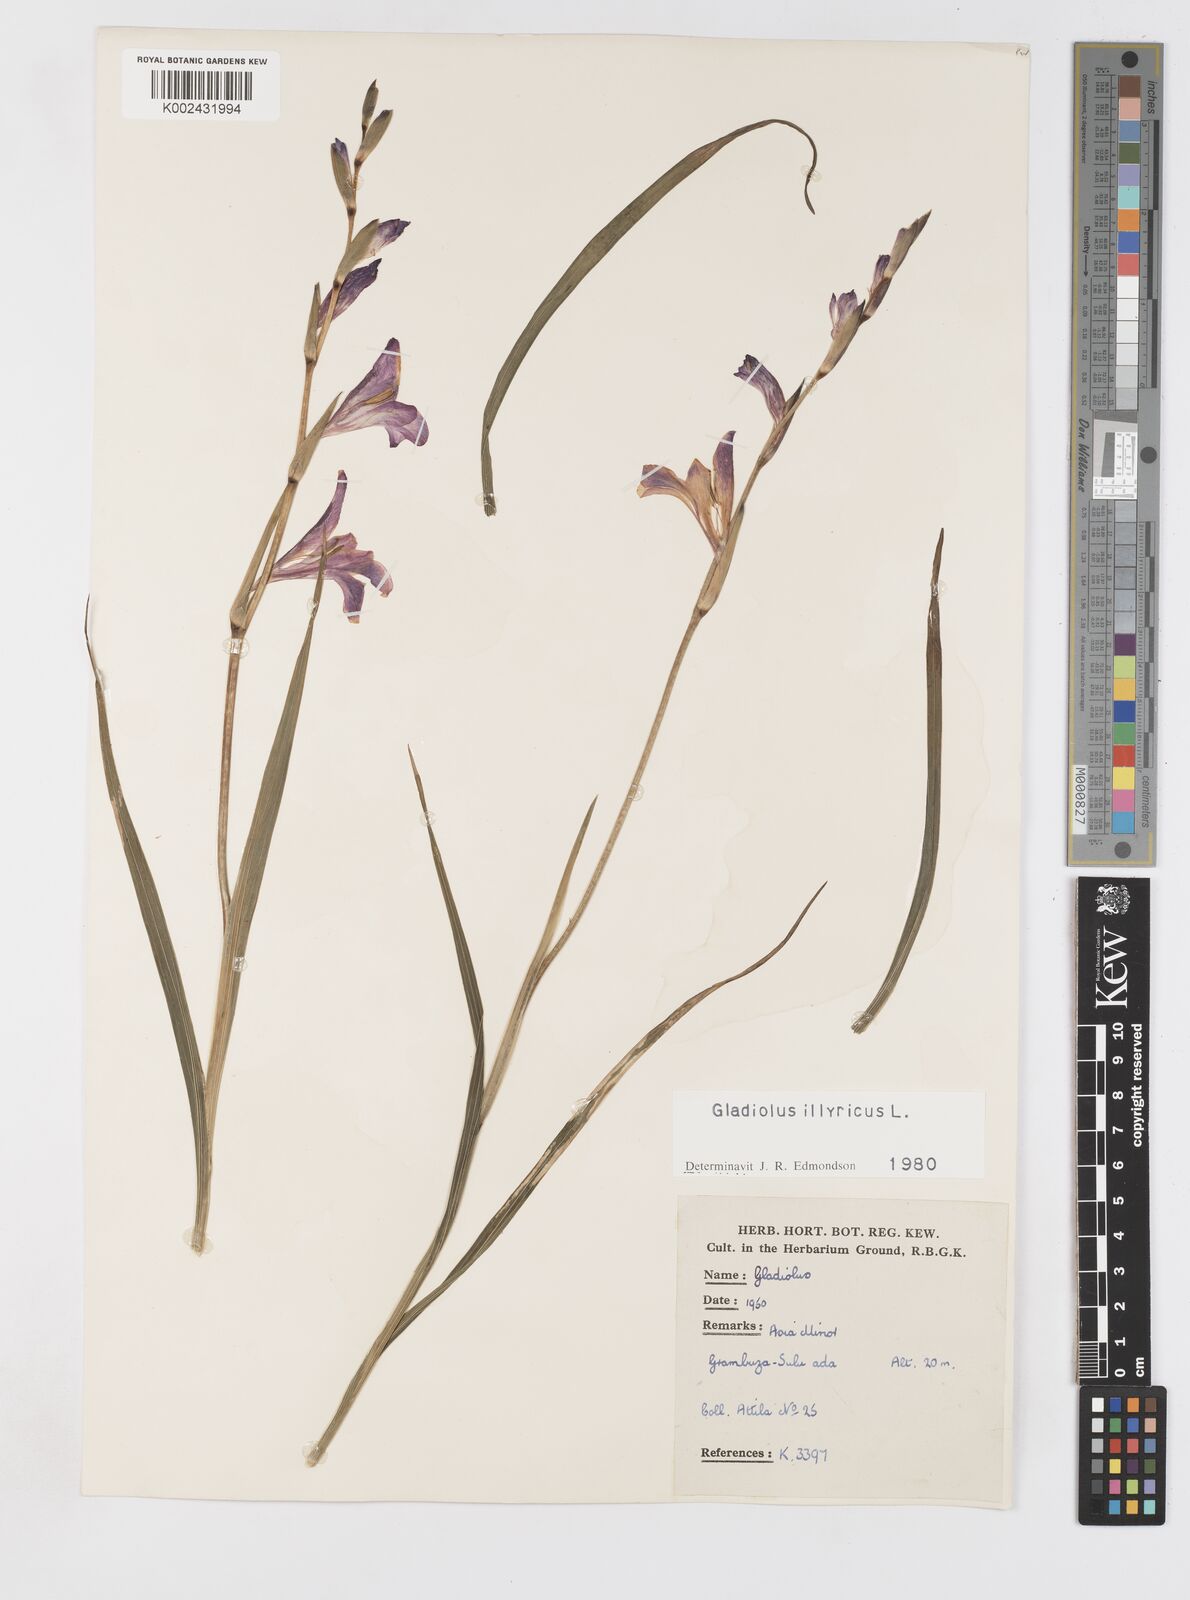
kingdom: Plantae
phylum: Tracheophyta
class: Liliopsida
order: Asparagales
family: Iridaceae
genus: Gladiolus
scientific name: Gladiolus illyricus
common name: Wild gladiolus
